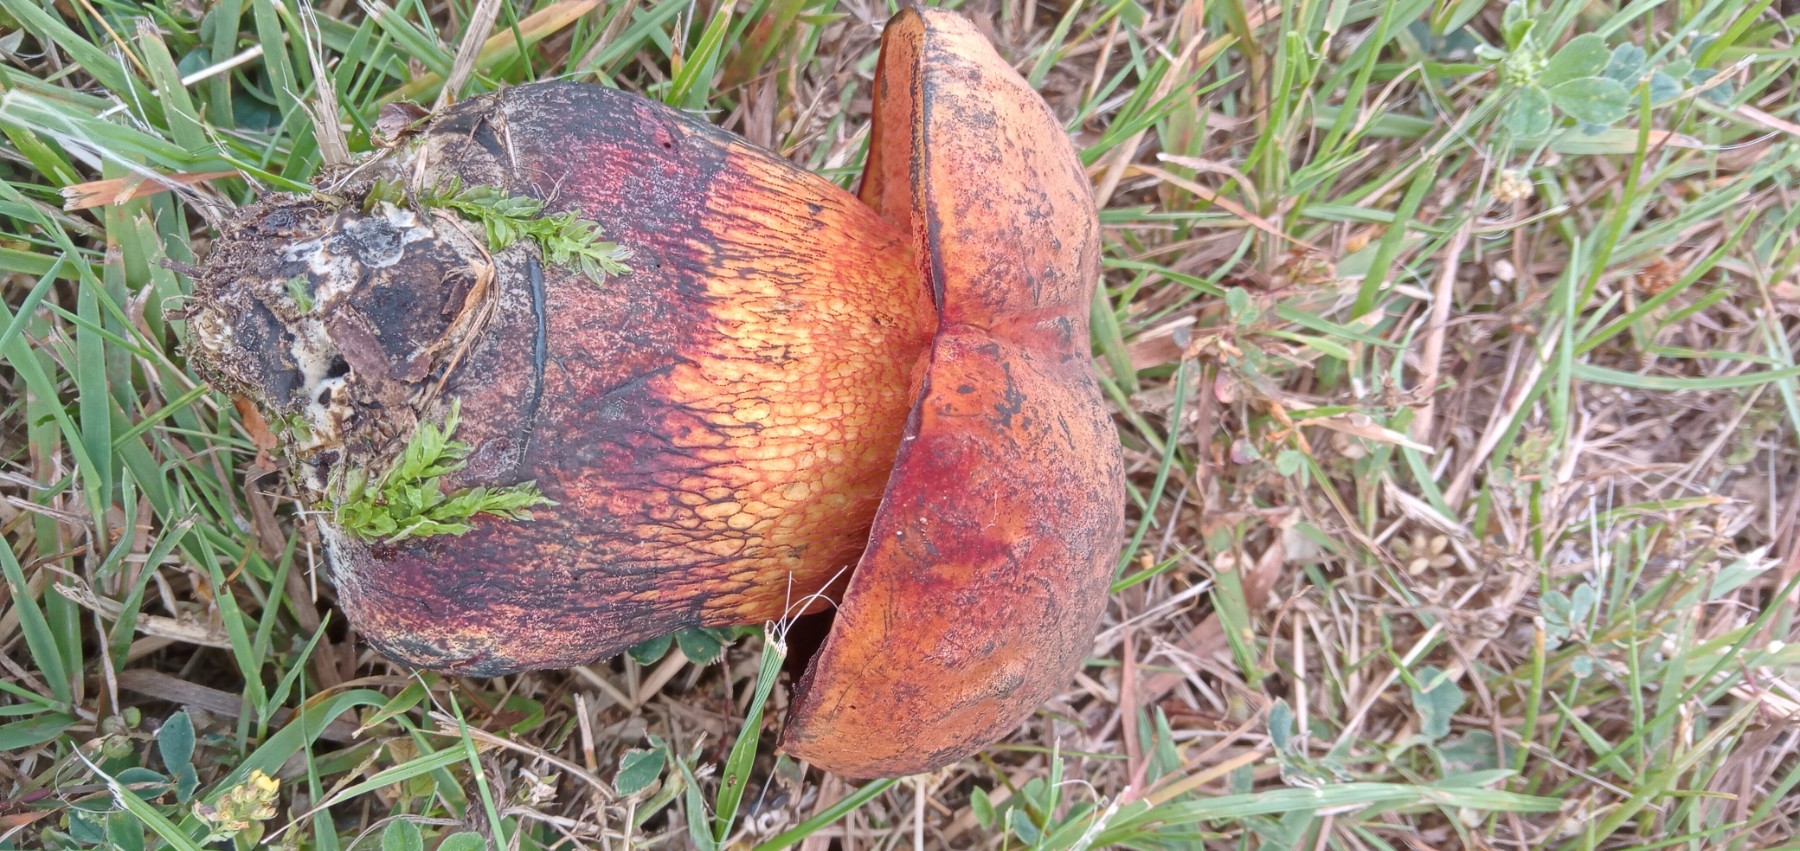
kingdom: Fungi
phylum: Basidiomycota
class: Agaricomycetes
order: Boletales
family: Boletaceae
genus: Suillellus
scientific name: Suillellus luridus
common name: netstokket indigorørhat
